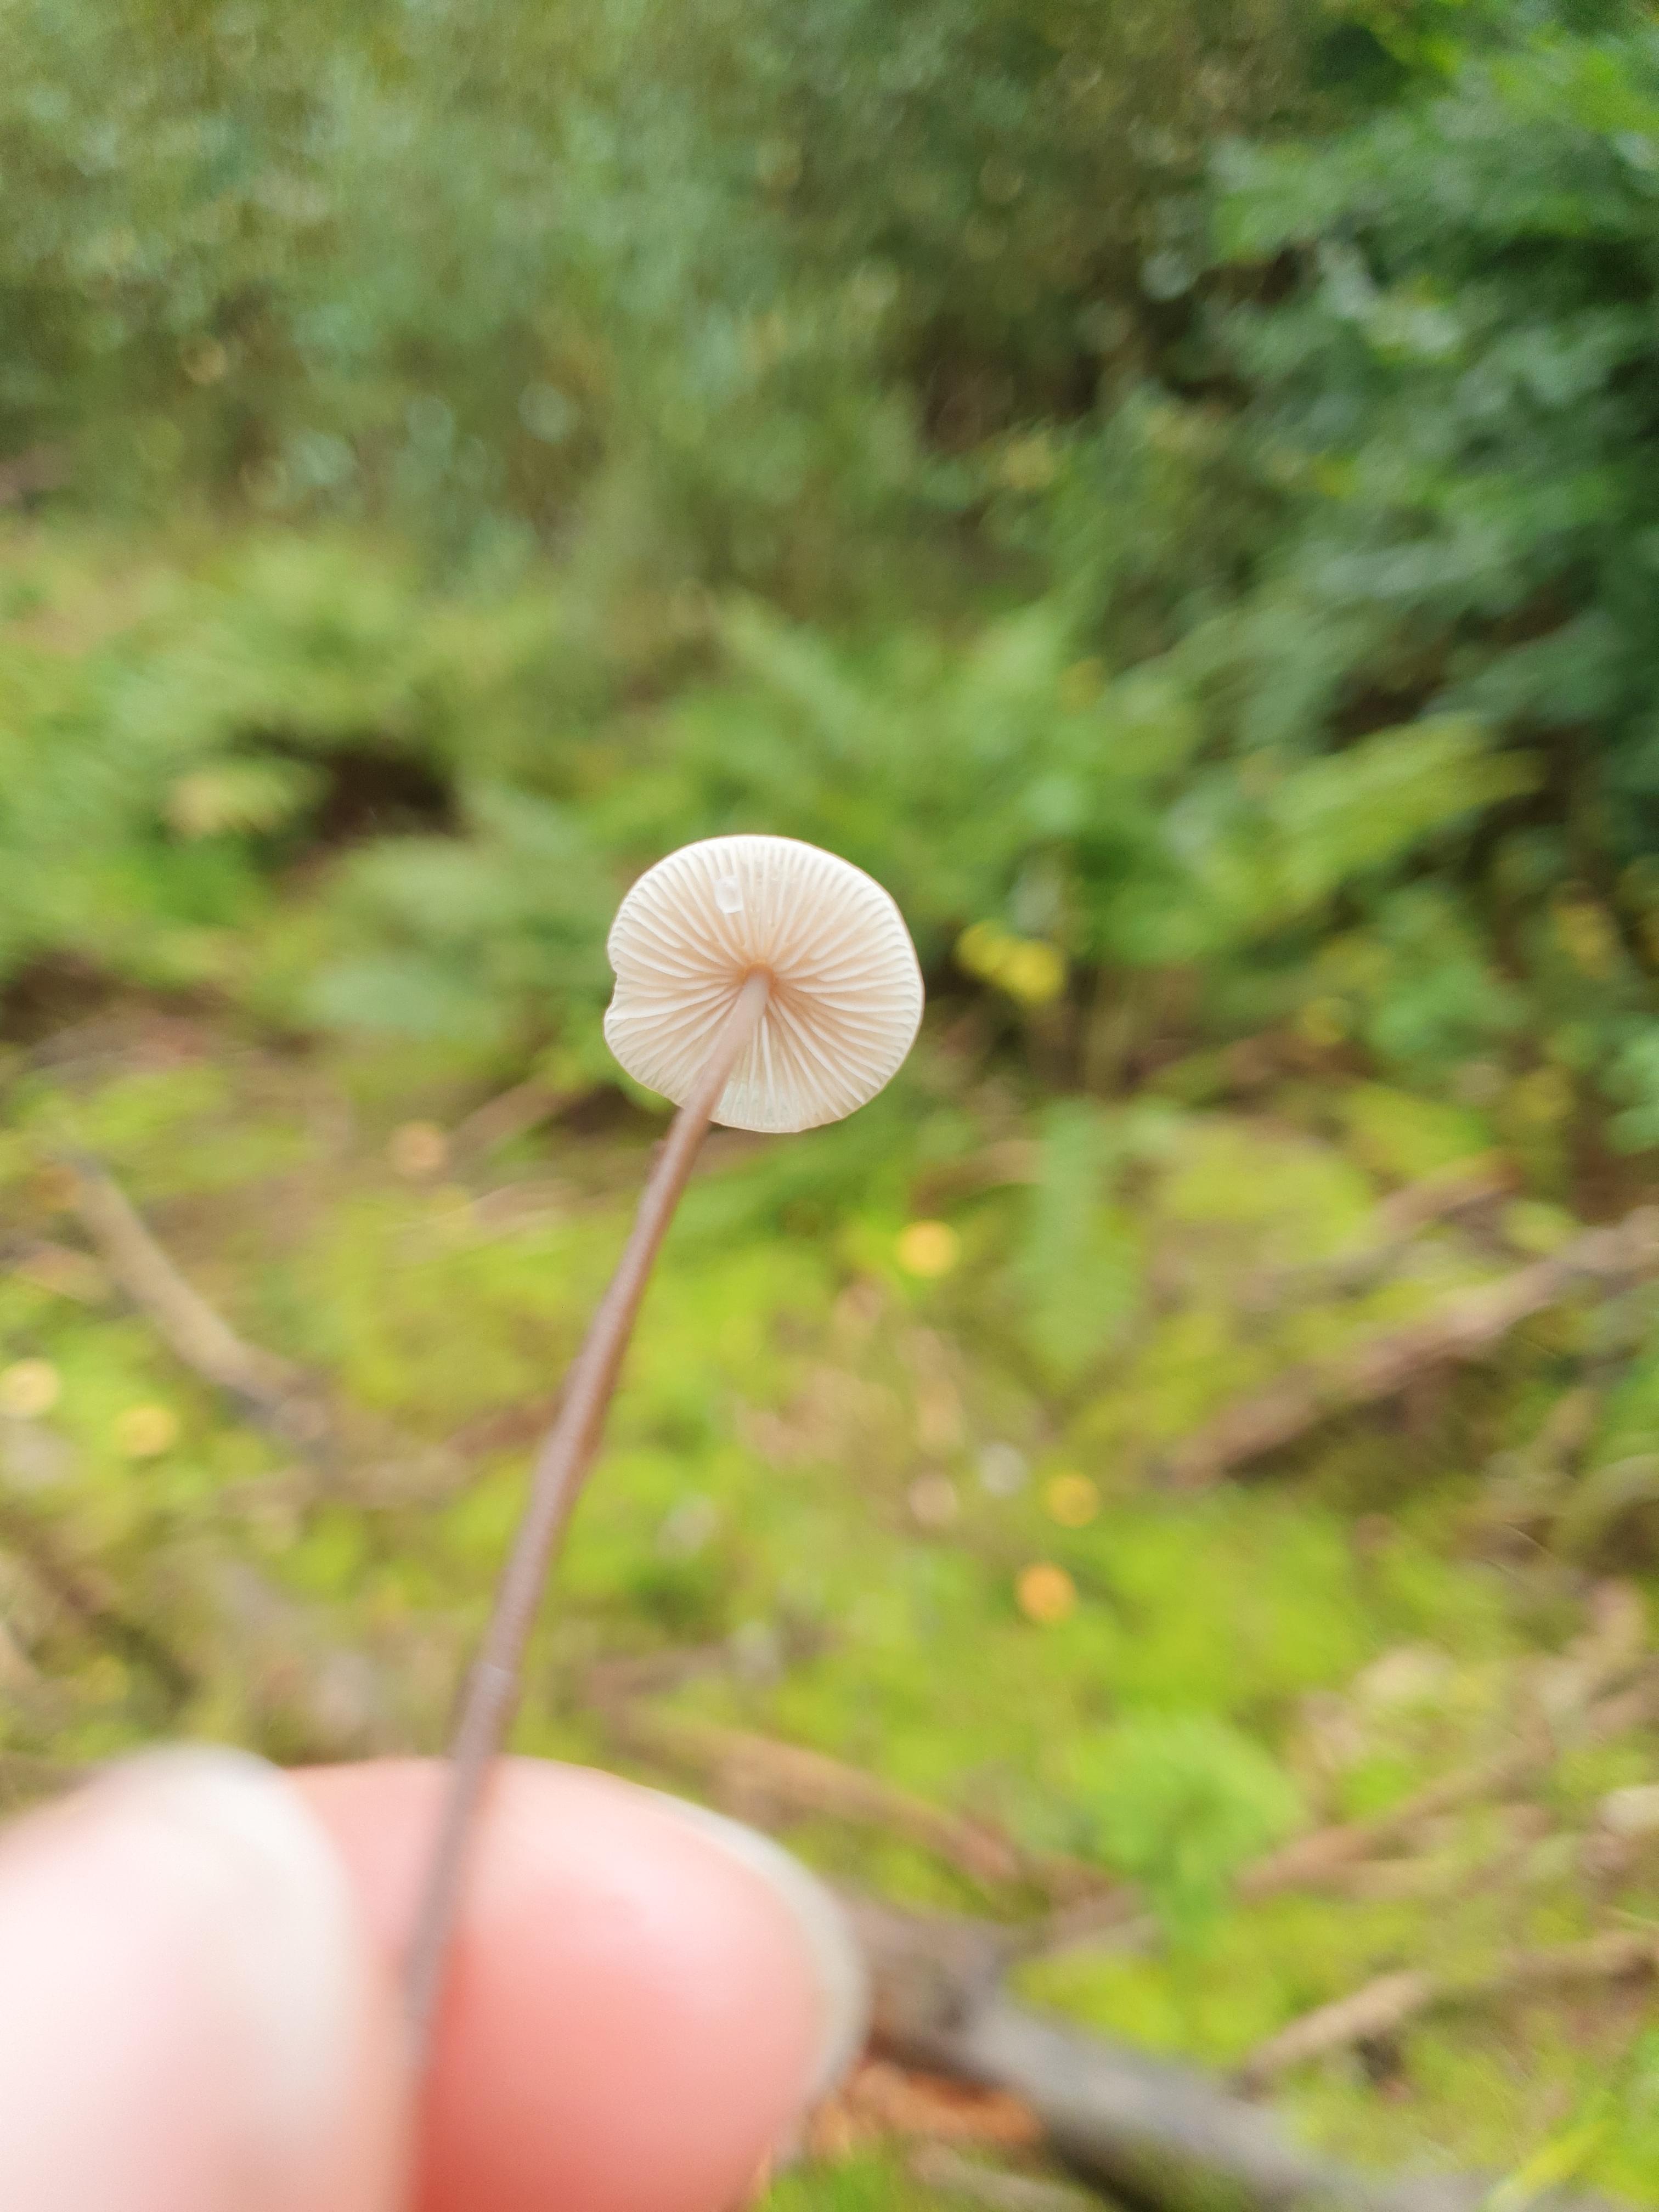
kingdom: Fungi
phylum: Basidiomycota
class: Agaricomycetes
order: Agaricales
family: Omphalotaceae
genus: Mycetinis
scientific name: Mycetinis alliaceus
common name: stor løghat
